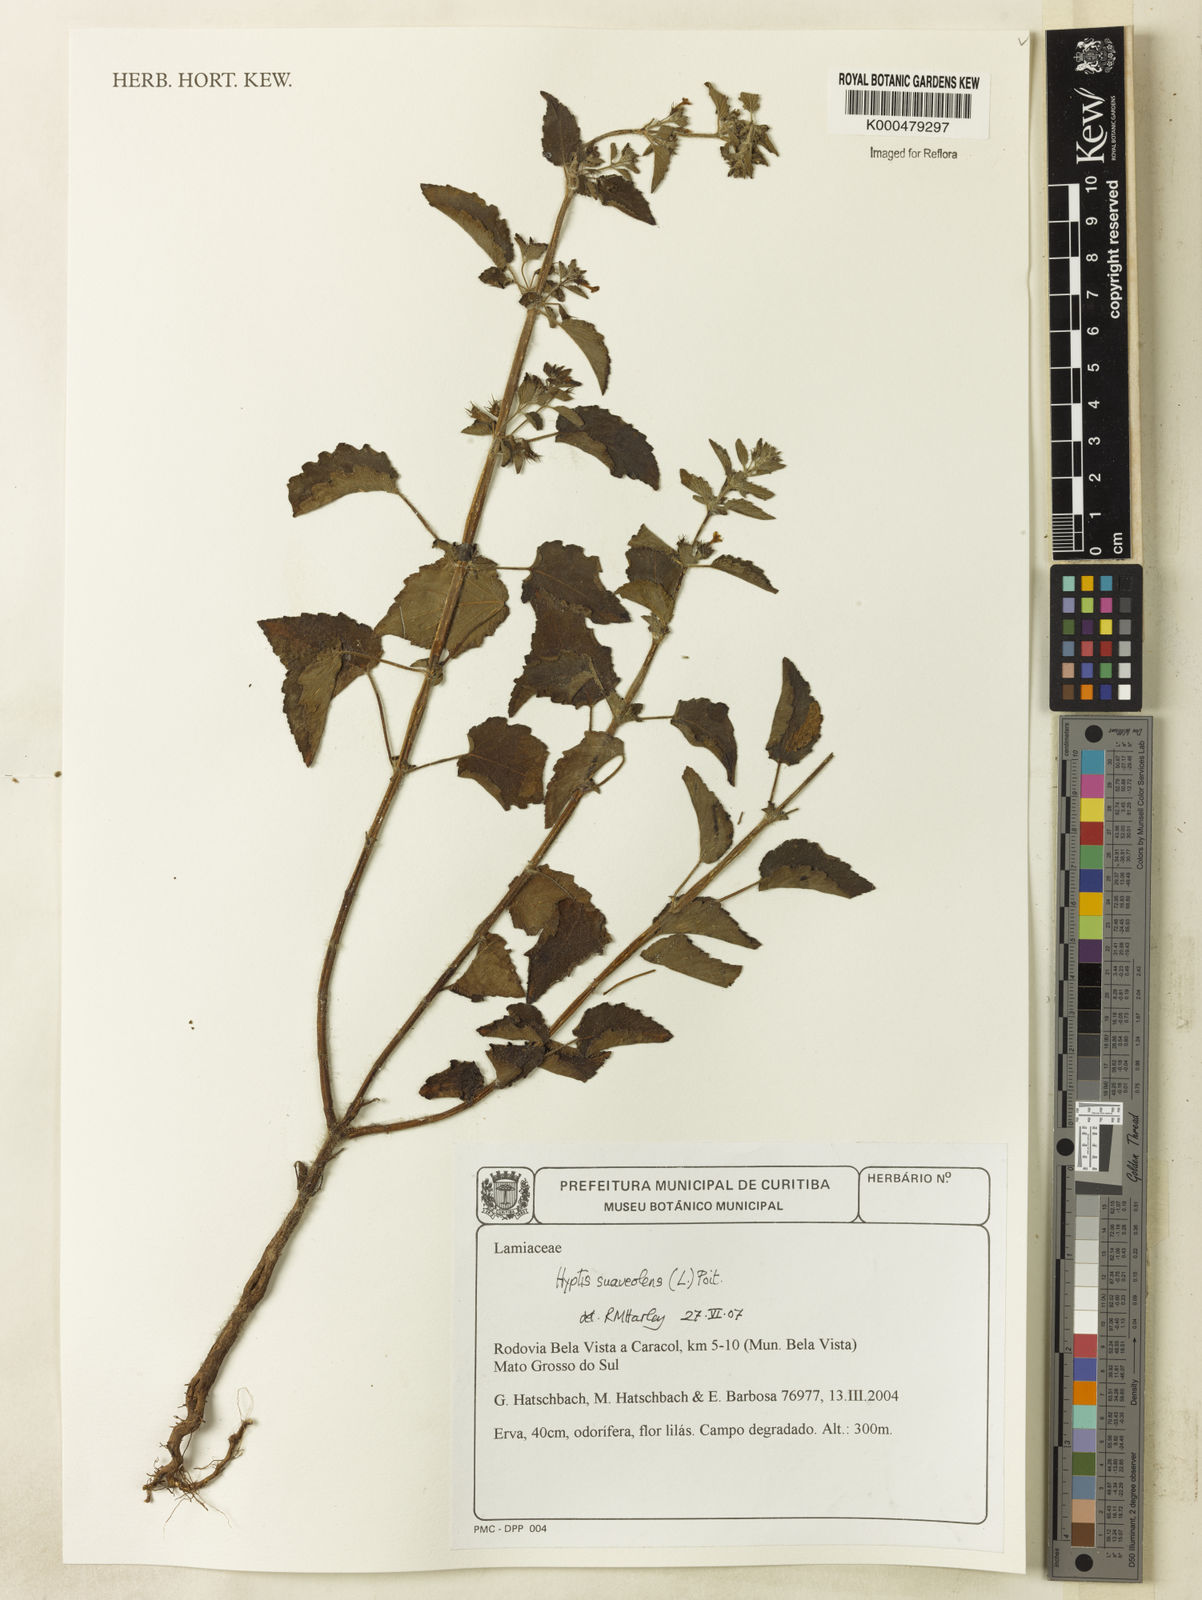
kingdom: Plantae
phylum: Tracheophyta
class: Magnoliopsida
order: Lamiales
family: Lamiaceae
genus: Mesosphaerum
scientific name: Mesosphaerum suaveolens
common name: Pignut
